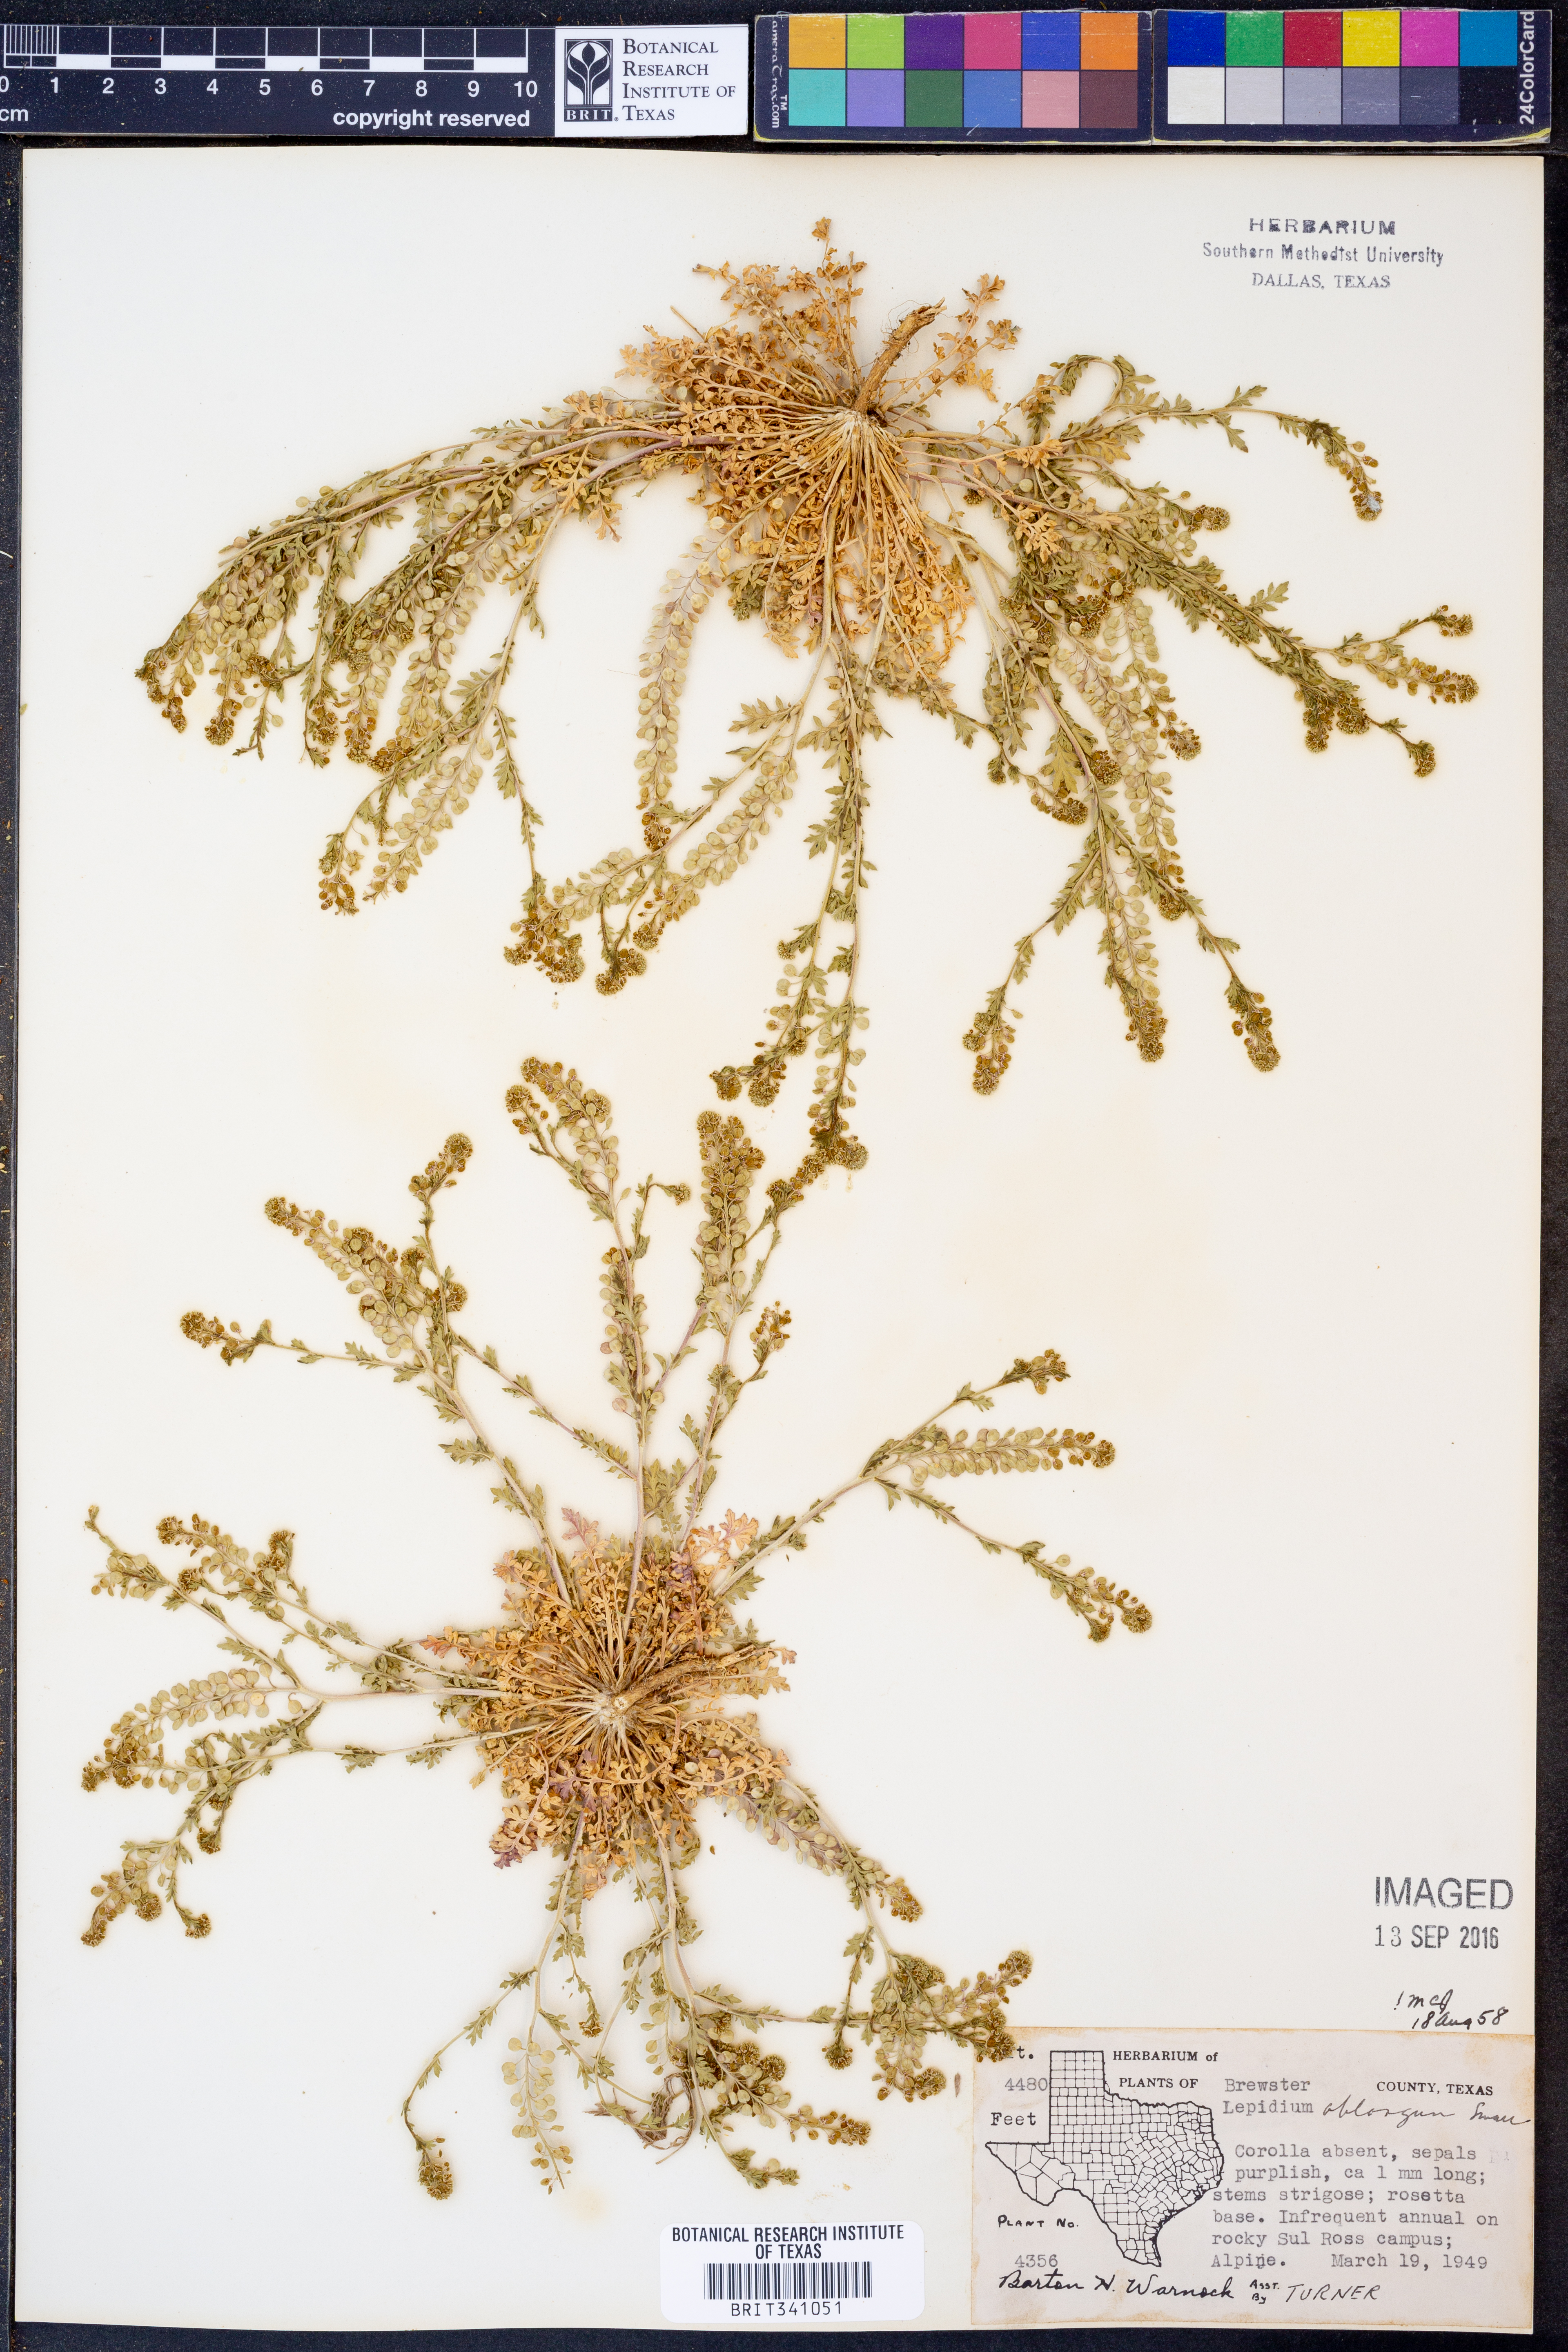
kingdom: Plantae
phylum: Tracheophyta
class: Magnoliopsida
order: Brassicales
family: Brassicaceae
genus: Lepidium
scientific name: Lepidium oblongum
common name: Veiny pepperweed
